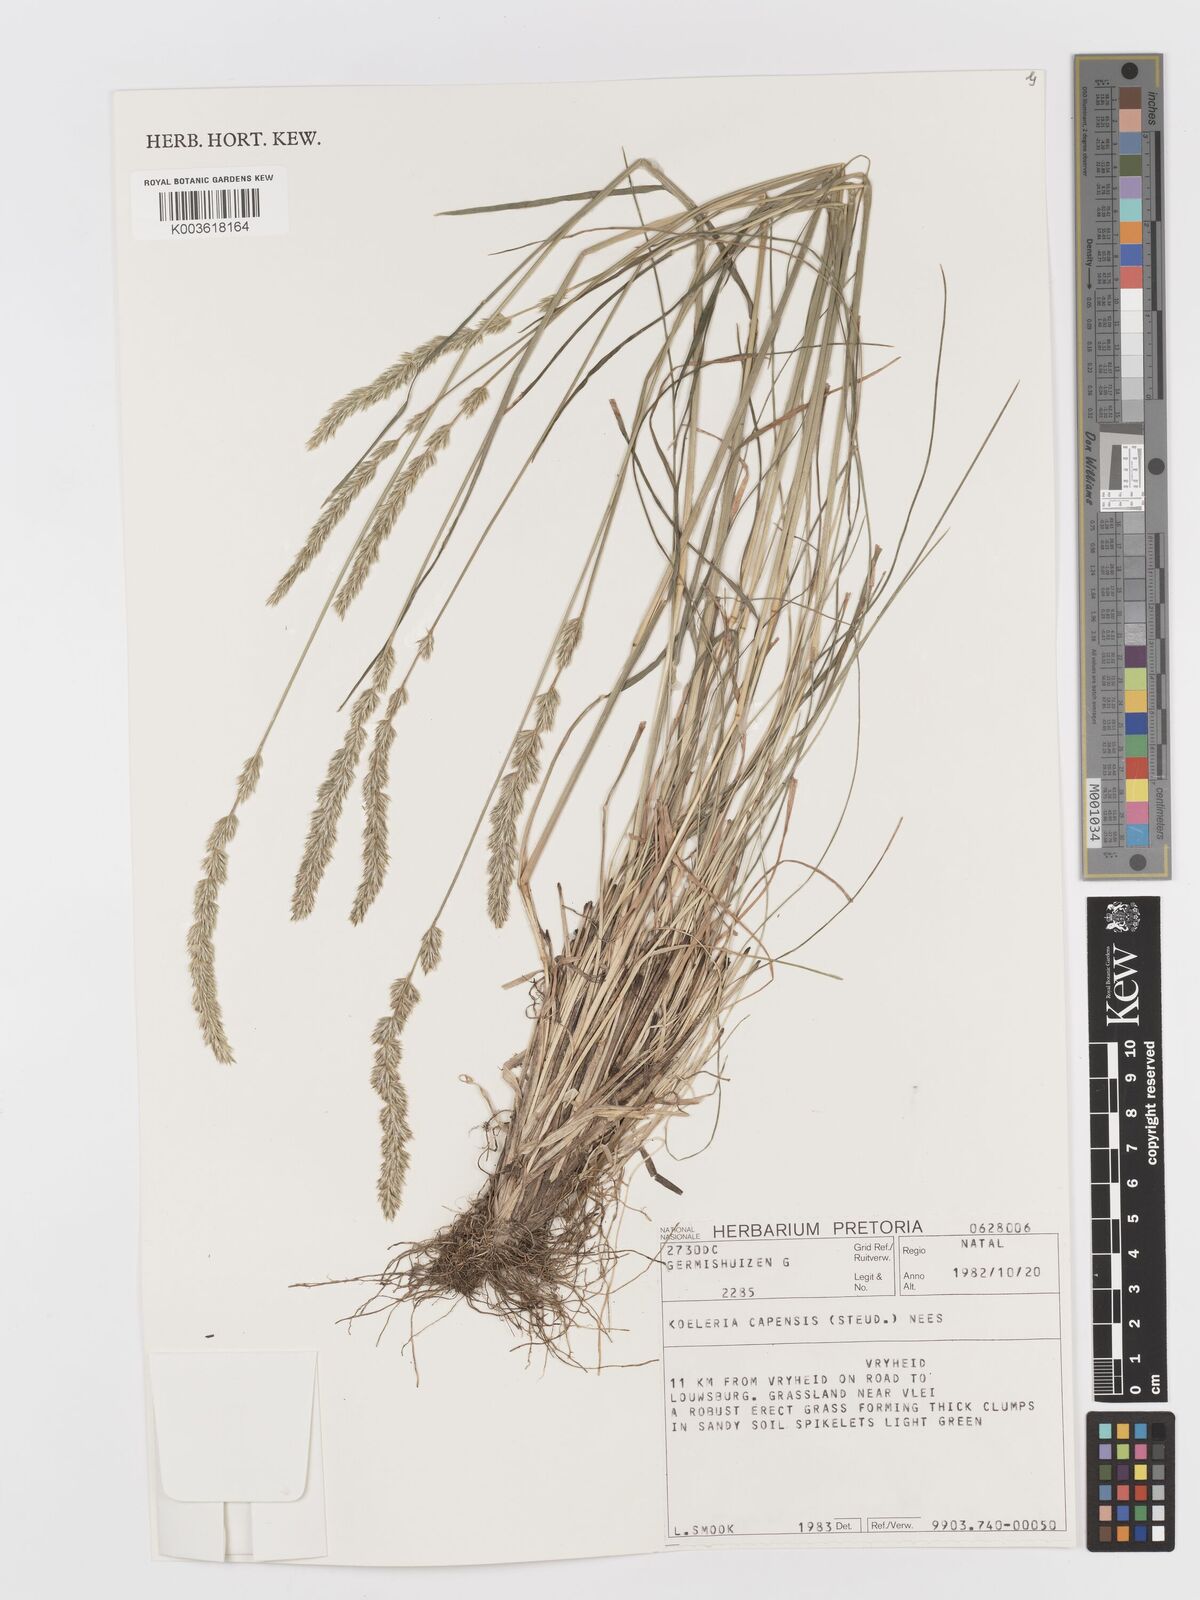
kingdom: Plantae
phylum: Tracheophyta
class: Liliopsida
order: Poales
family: Poaceae
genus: Koeleria
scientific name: Koeleria capensis
